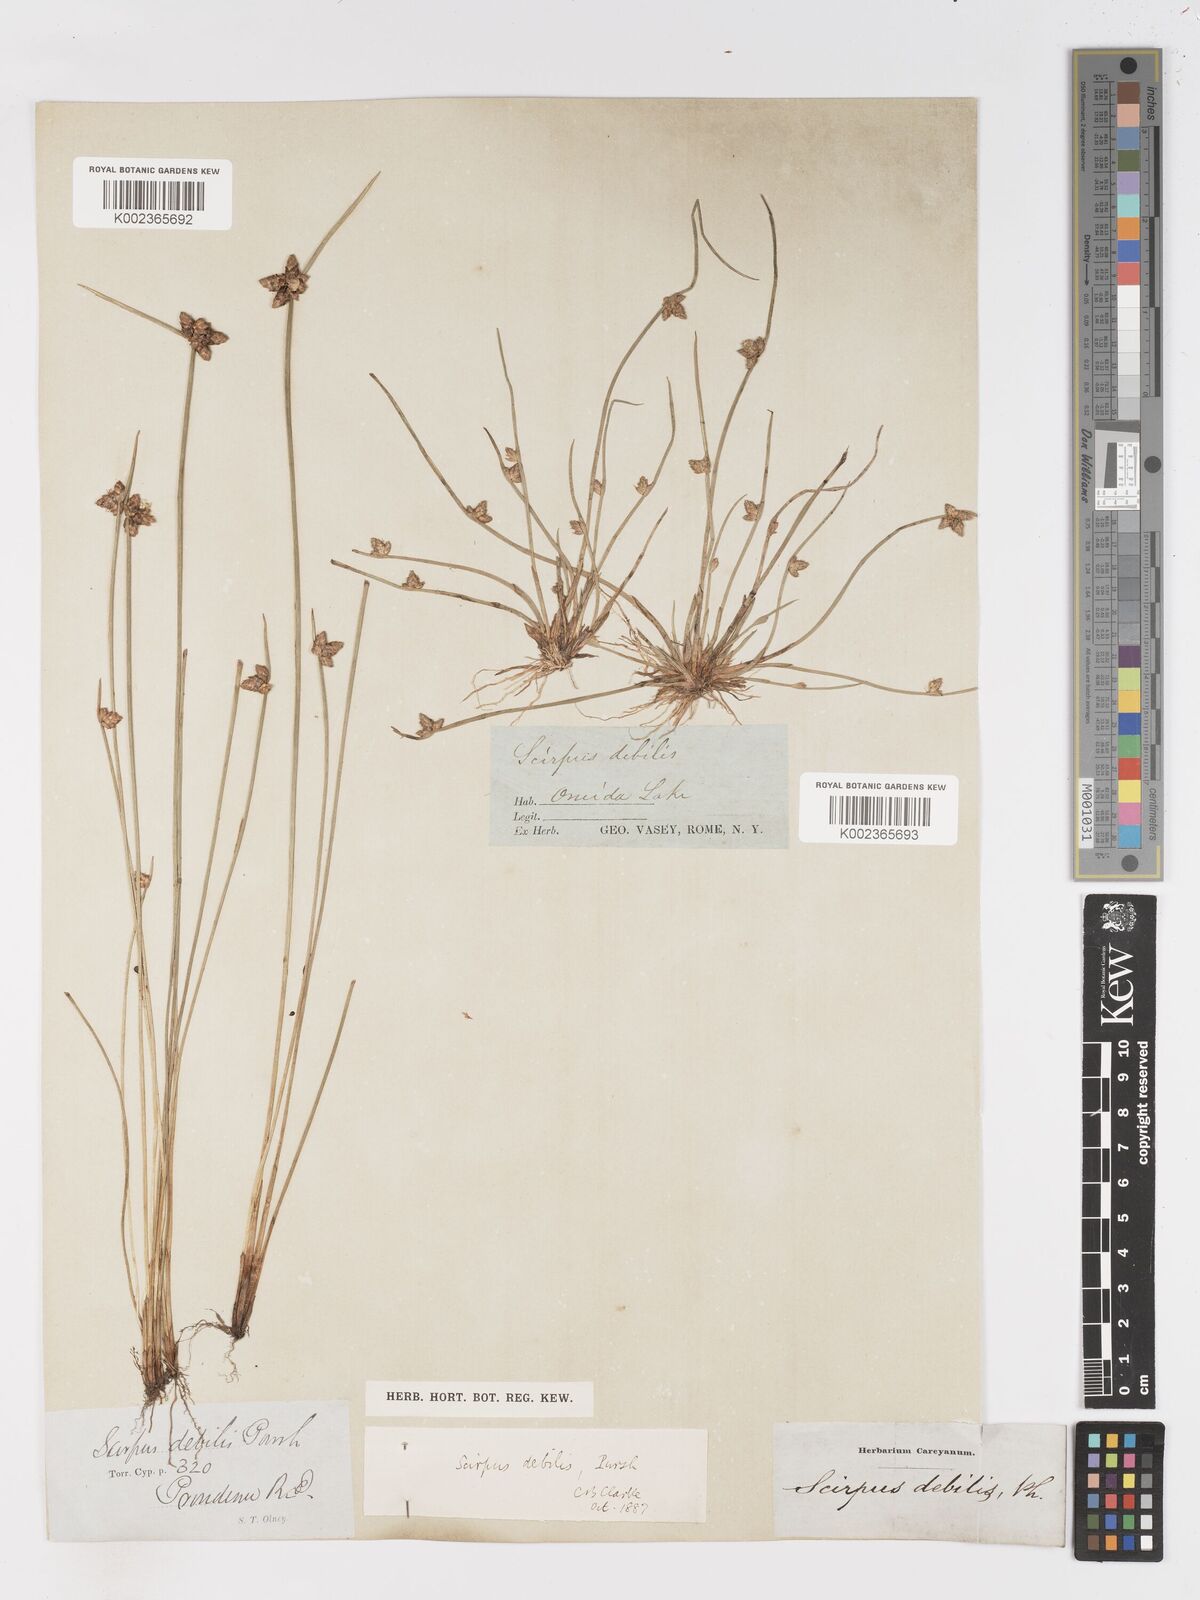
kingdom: Plantae
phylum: Tracheophyta
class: Liliopsida
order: Poales
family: Cyperaceae
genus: Schoenoplectiella
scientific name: Schoenoplectiella purshiana
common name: Weak-stalked bulrush
